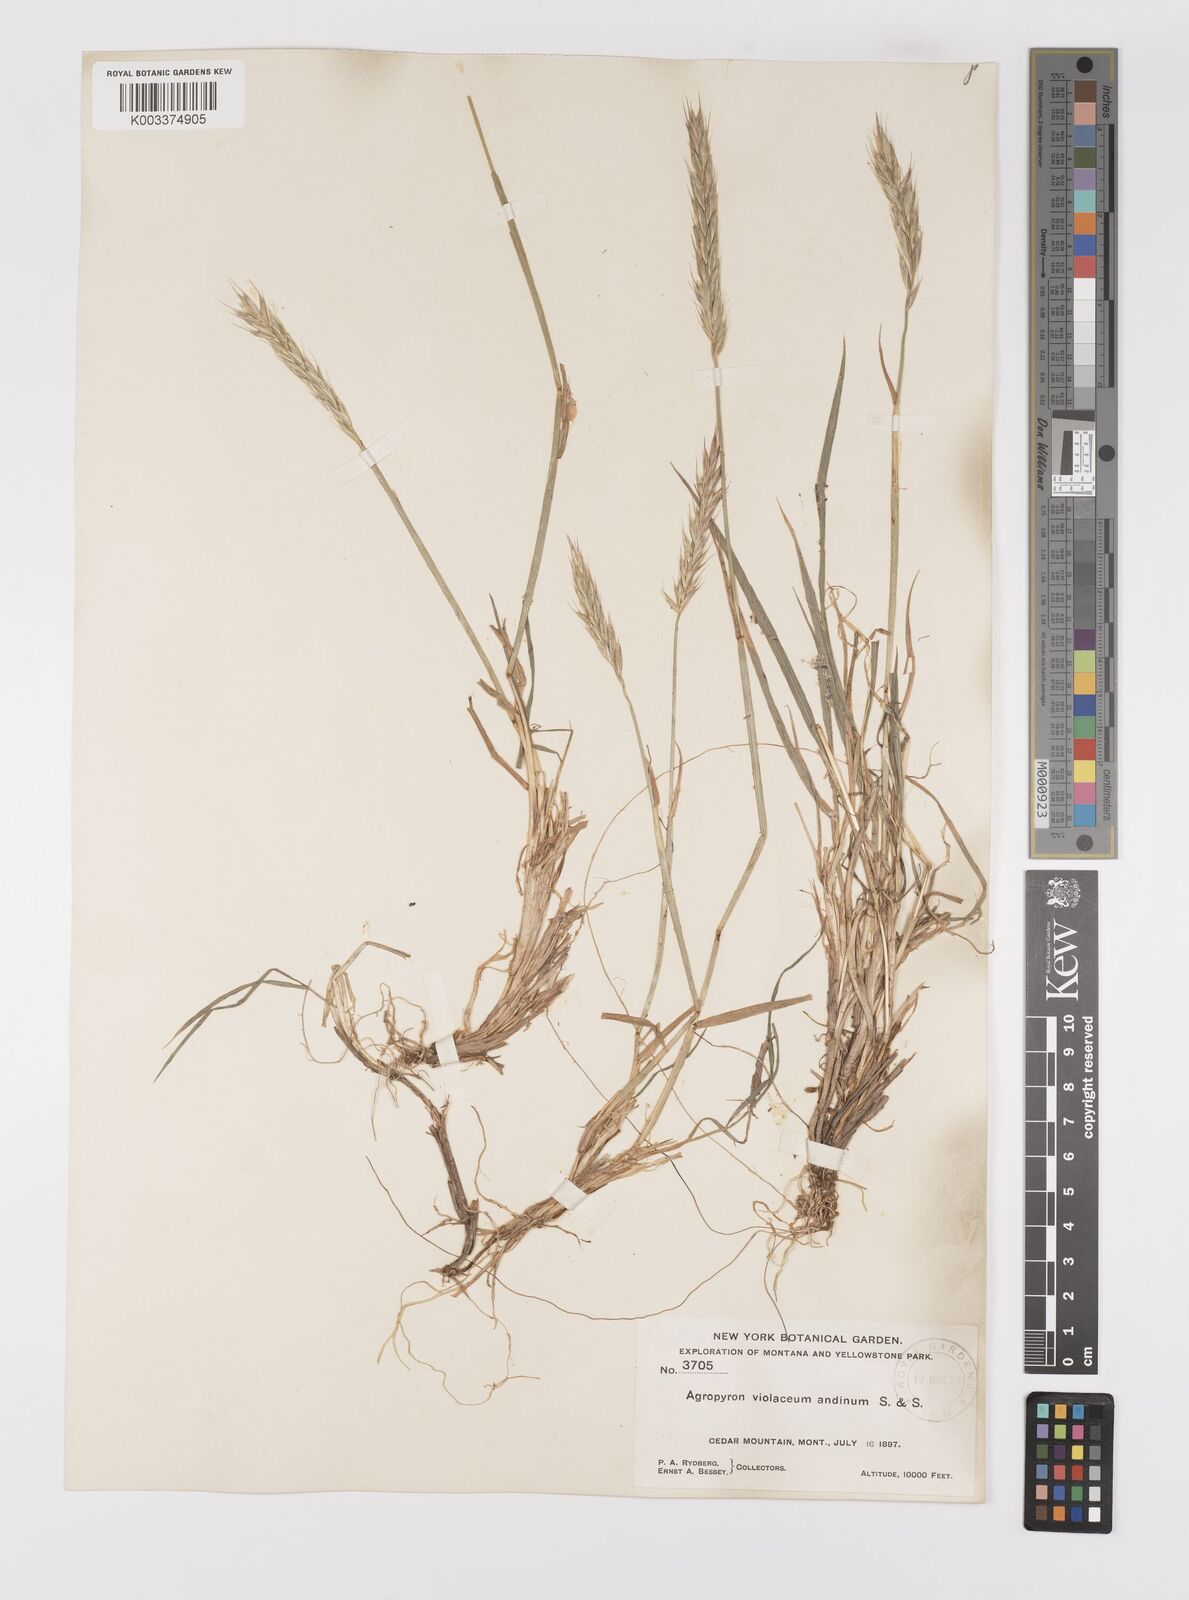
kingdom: Plantae
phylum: Tracheophyta
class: Liliopsida
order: Poales
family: Poaceae
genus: Elymus
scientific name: Elymus violaceus
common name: Arctic wheatgrass
